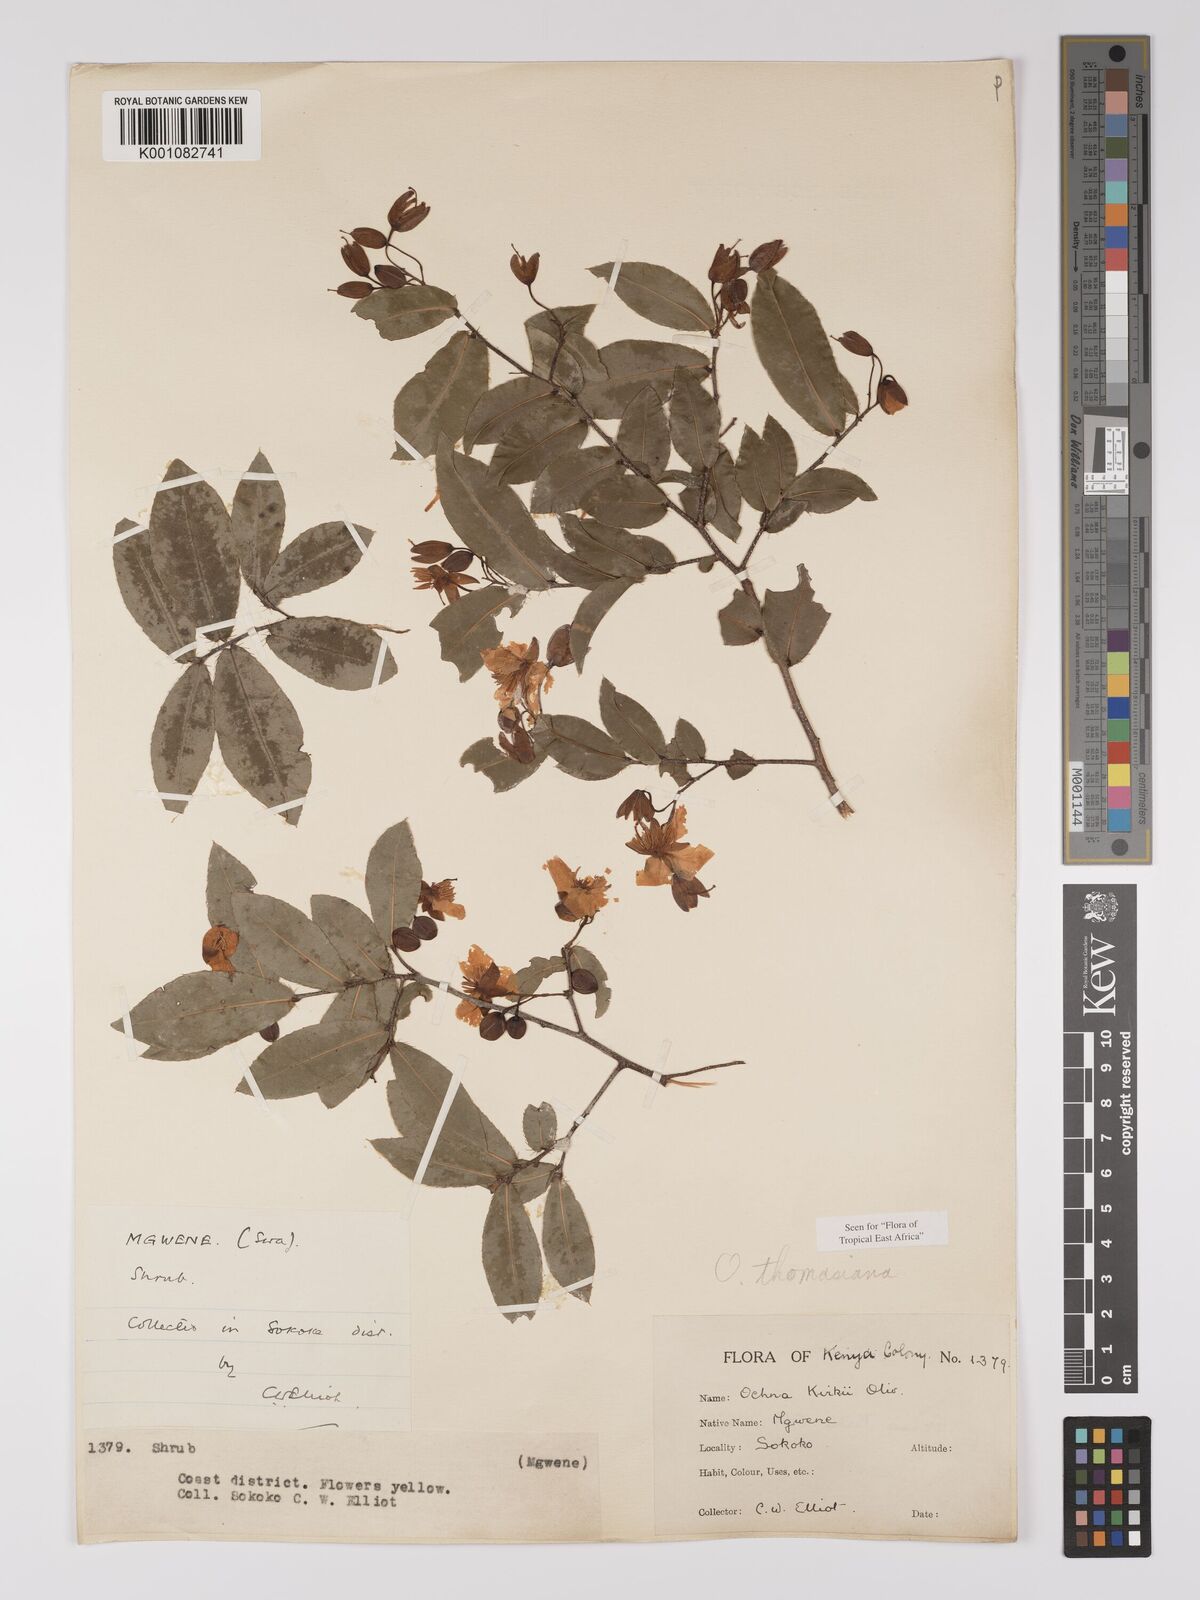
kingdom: Plantae
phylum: Tracheophyta
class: Magnoliopsida
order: Malpighiales
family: Ochnaceae
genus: Ochna
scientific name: Ochna thomasiana
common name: Thomas' bird's-eye bush
